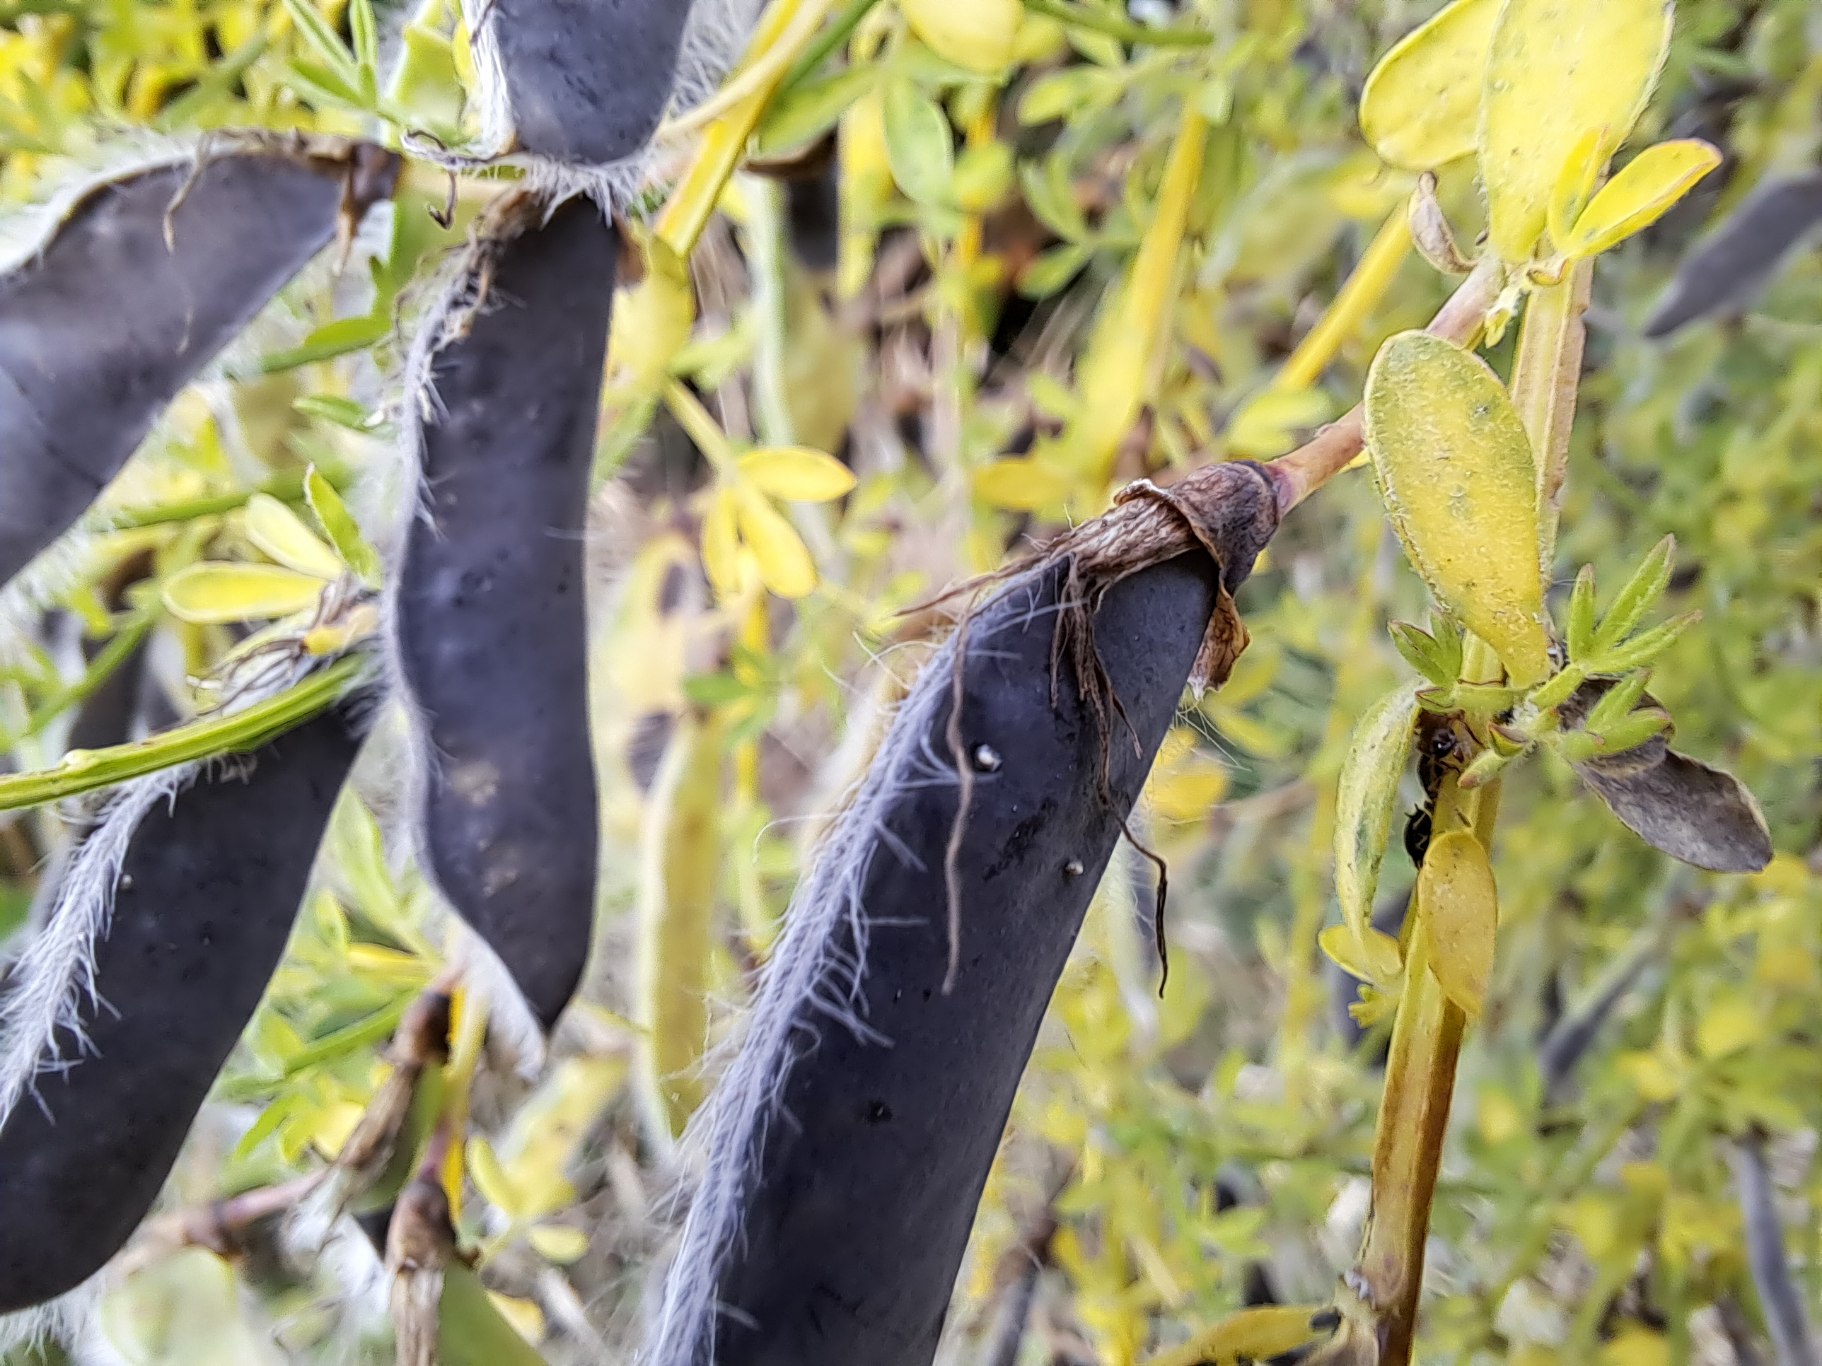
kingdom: Plantae
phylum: Tracheophyta
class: Magnoliopsida
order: Fabales
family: Fabaceae
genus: Cytisus
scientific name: Cytisus scoparius
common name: Almindelig gyvel
